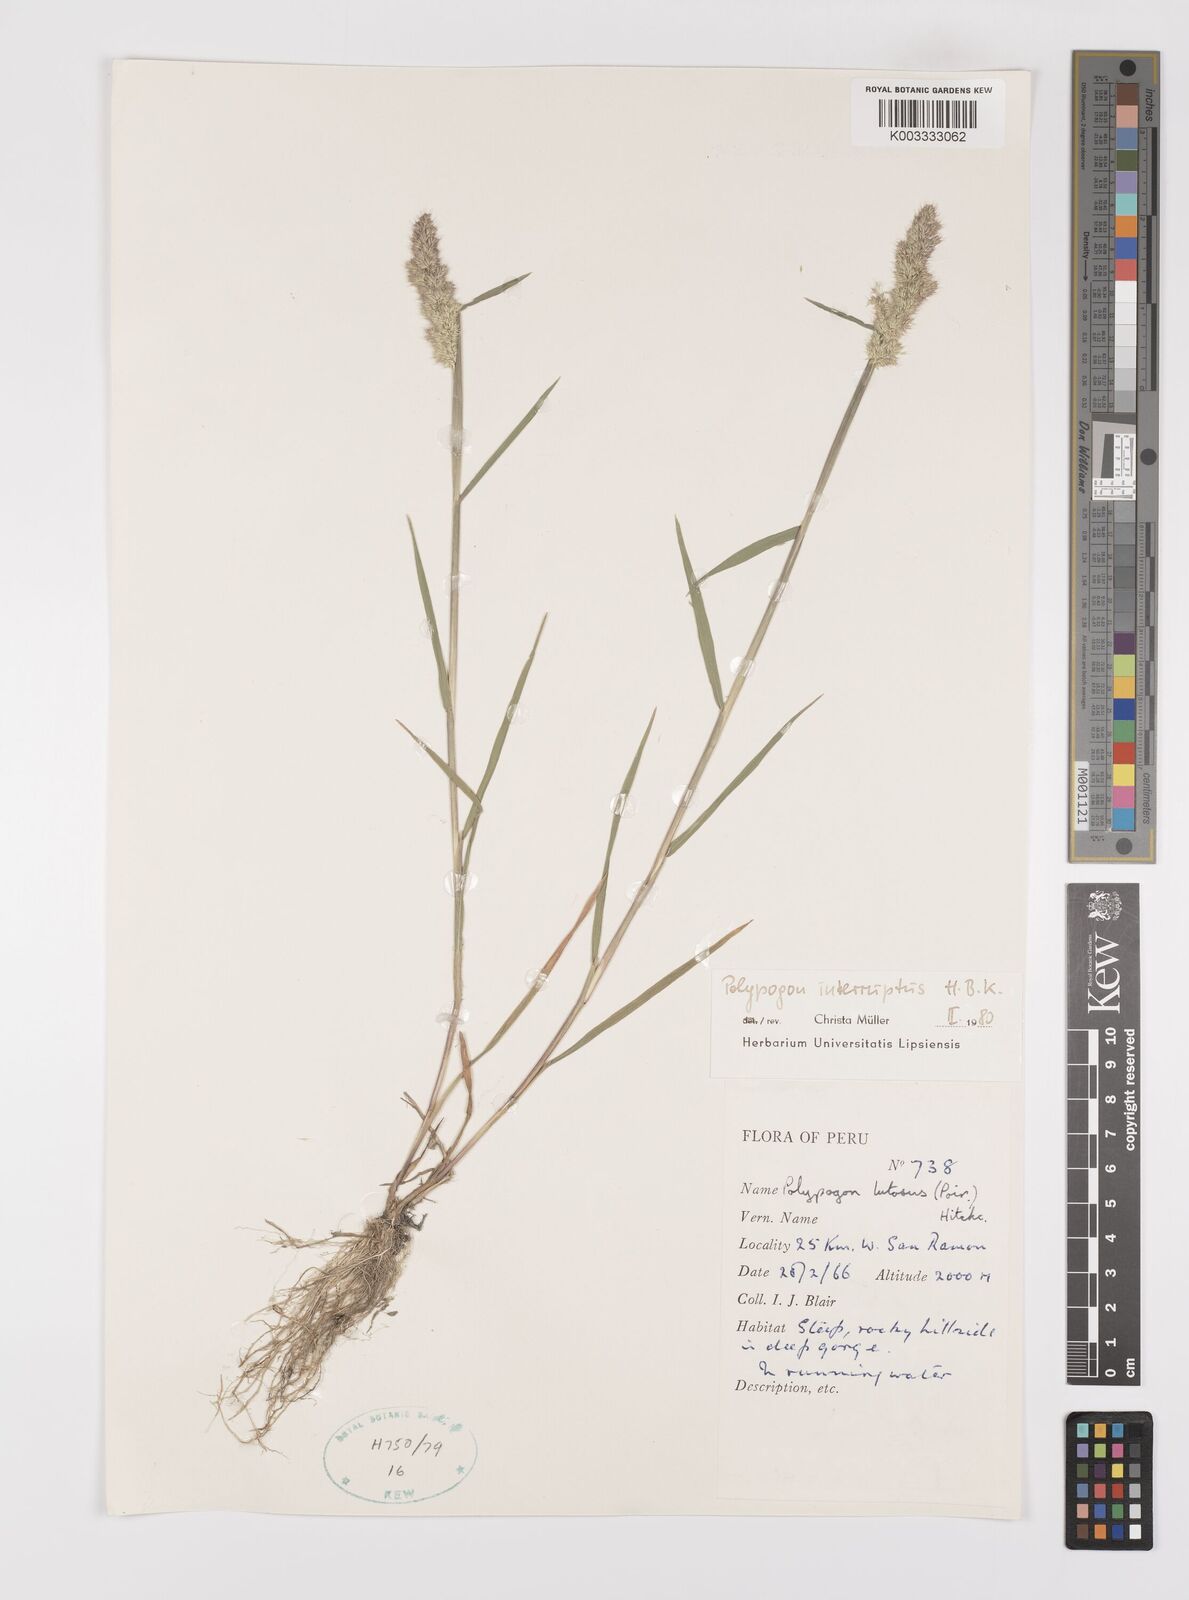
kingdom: Plantae
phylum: Tracheophyta
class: Liliopsida
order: Poales
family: Poaceae
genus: Polypogon
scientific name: Polypogon interruptus
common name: Ditch polypogon
